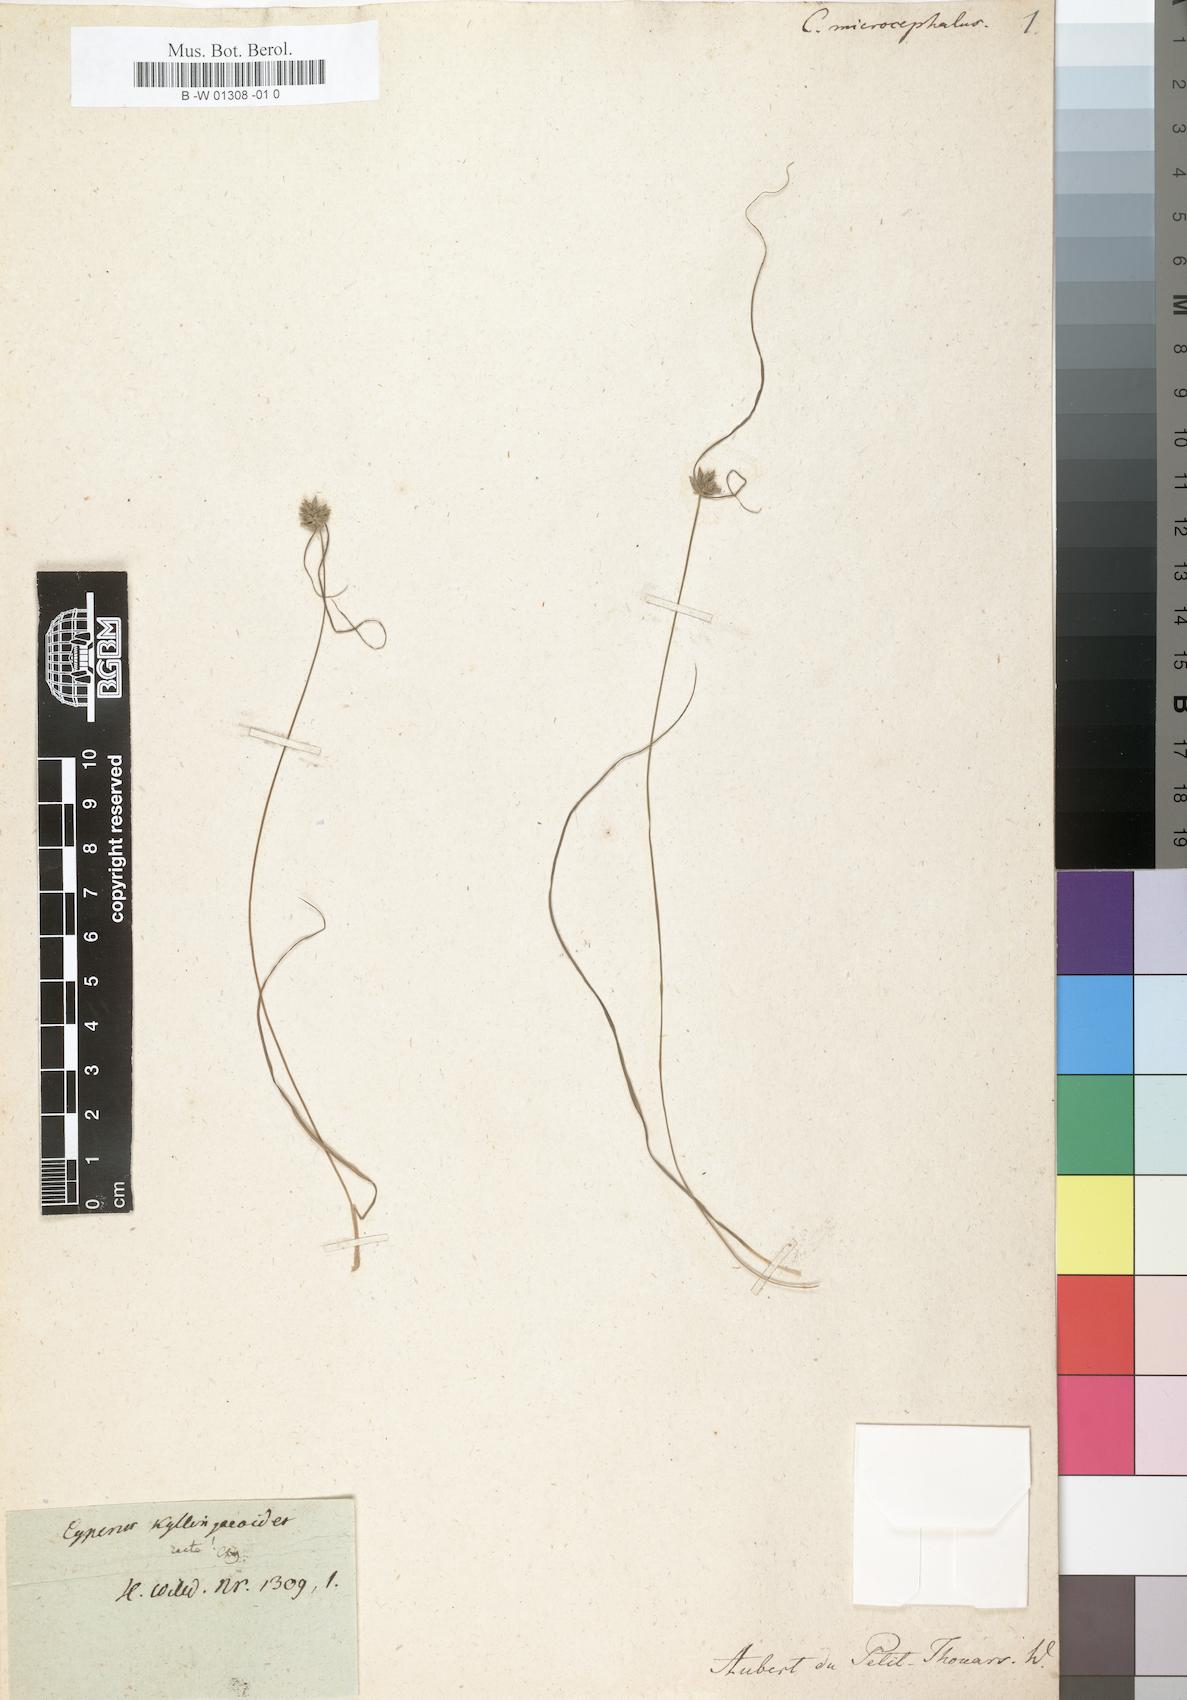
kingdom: Plantae
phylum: Tracheophyta
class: Liliopsida
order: Poales
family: Cyperaceae
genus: Cyperus
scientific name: Cyperus microcephalus
